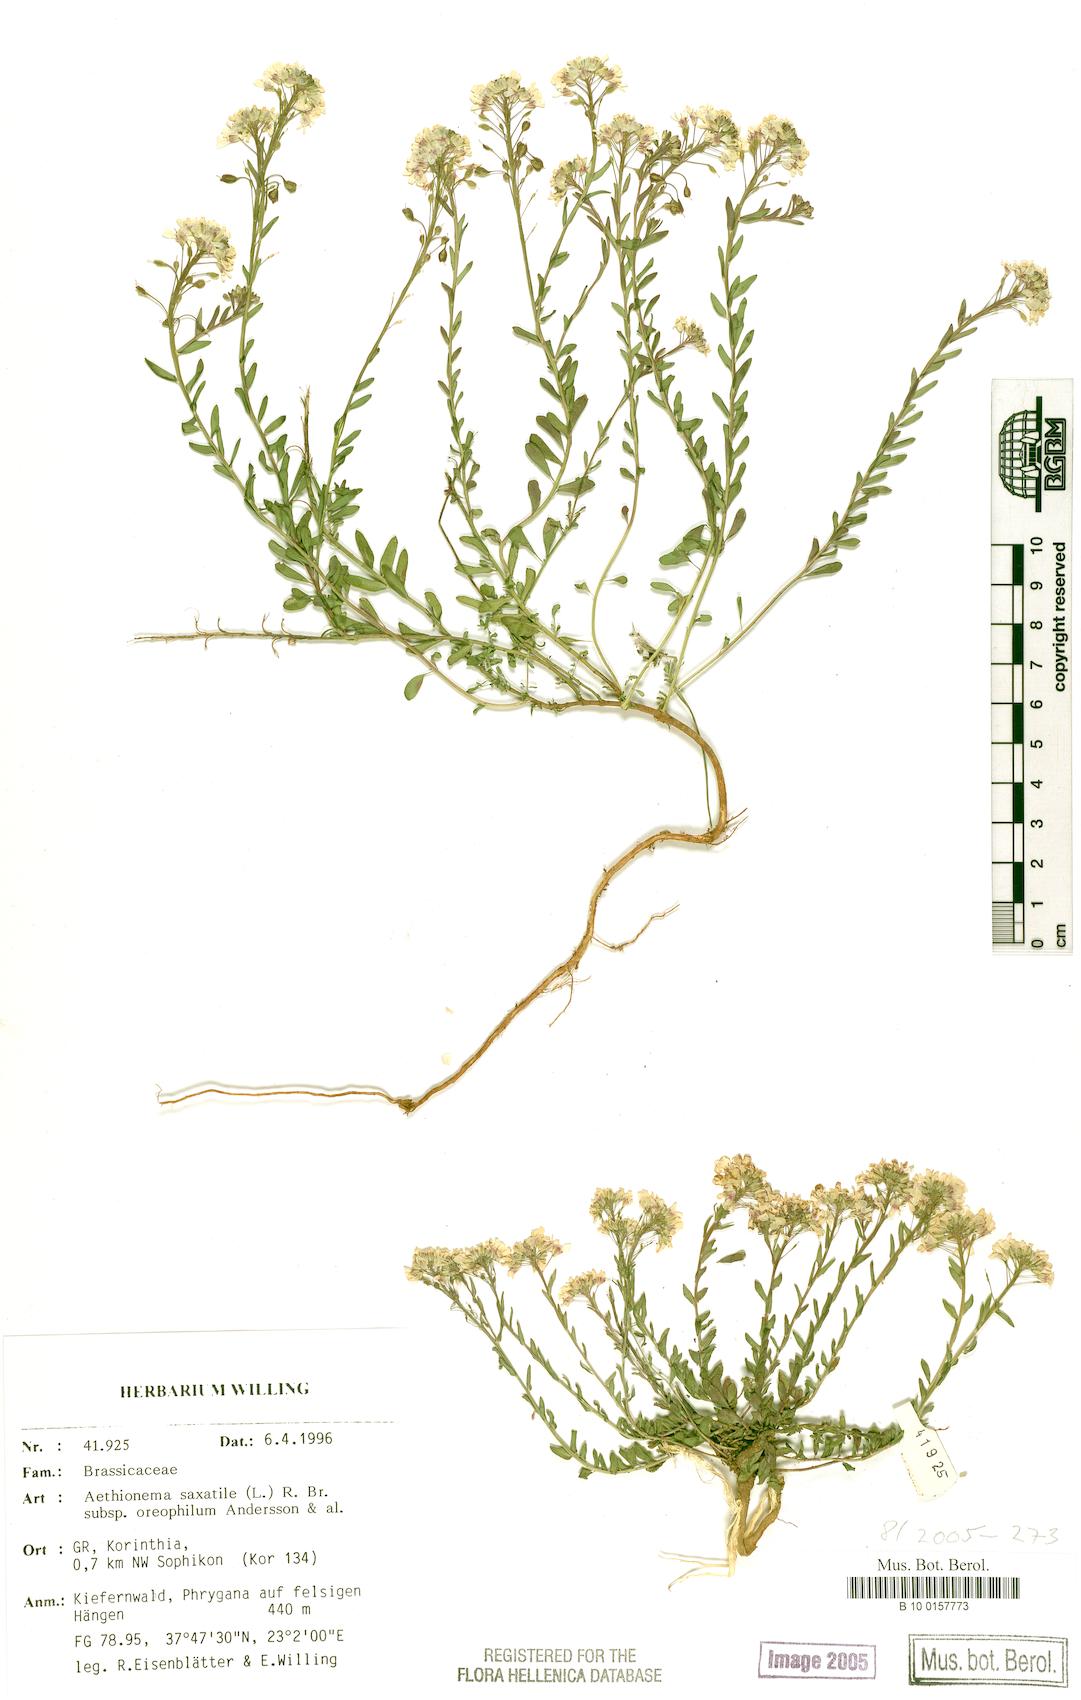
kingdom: Plantae
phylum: Tracheophyta
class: Magnoliopsida
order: Brassicales
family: Brassicaceae
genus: Aethionema
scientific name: Aethionema saxatile
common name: Burnt candytuft
